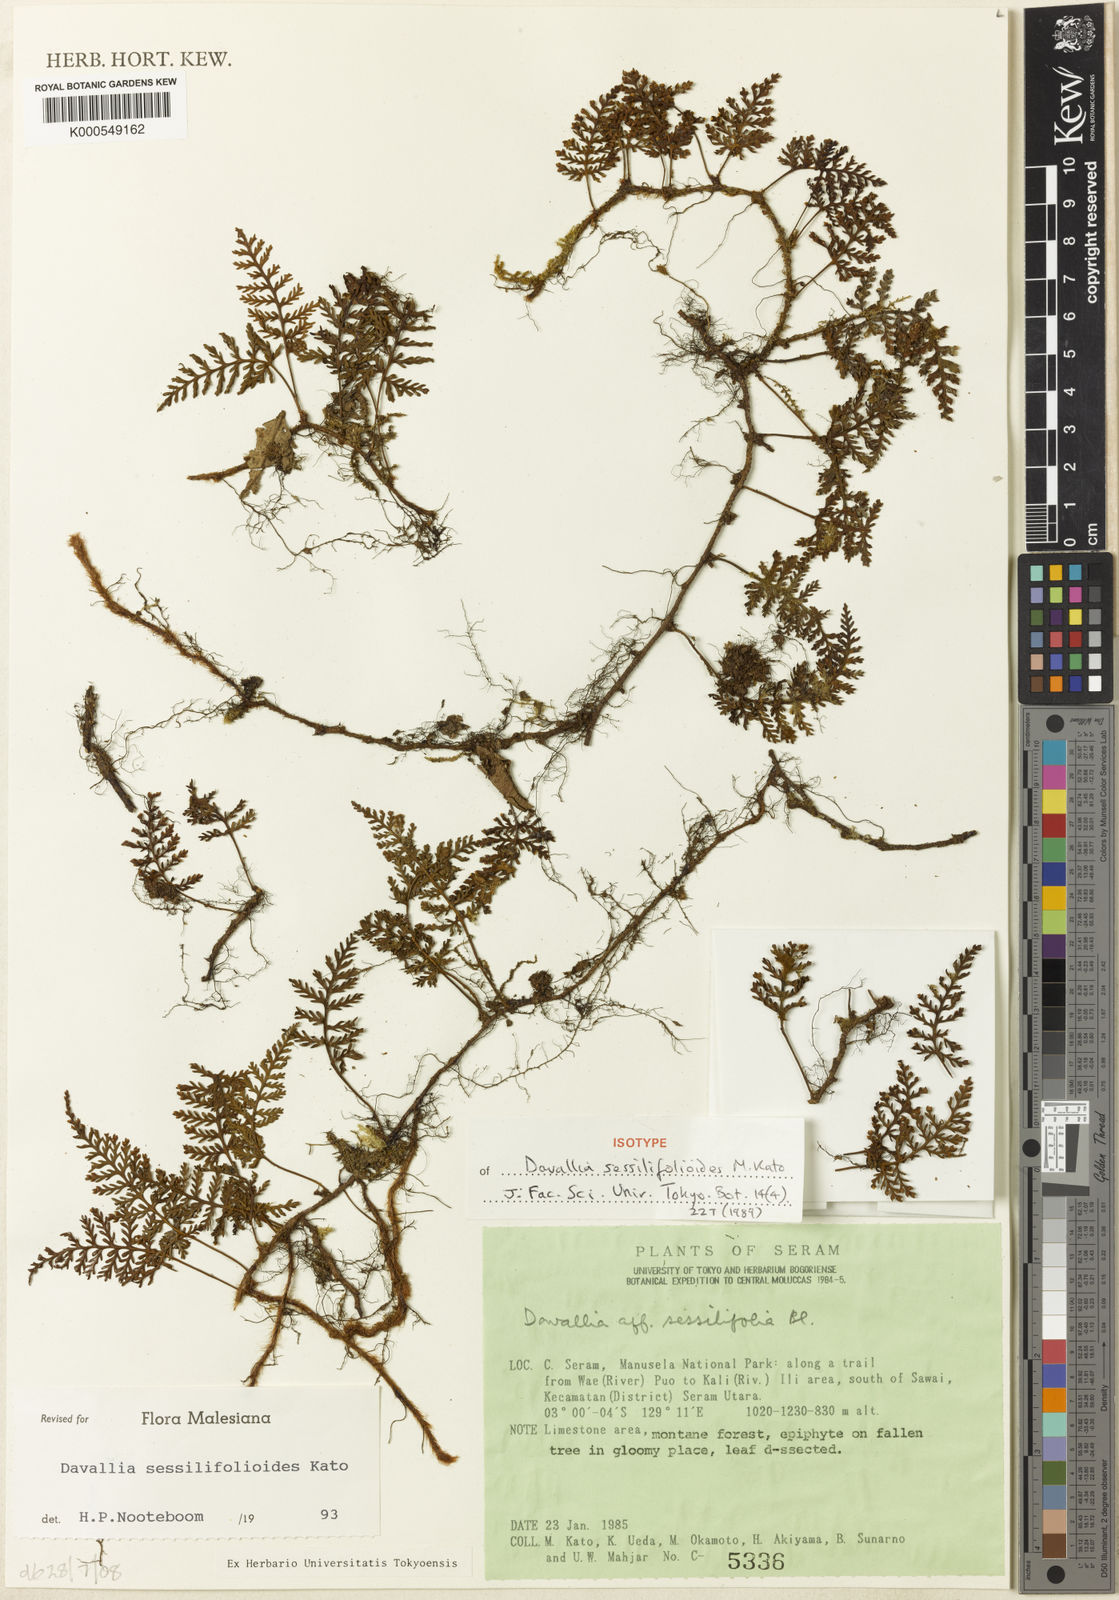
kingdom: Plantae
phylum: Tracheophyta
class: Polypodiopsida
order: Polypodiales
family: Davalliaceae
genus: Davallia
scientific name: Davallia sessilifolioides
